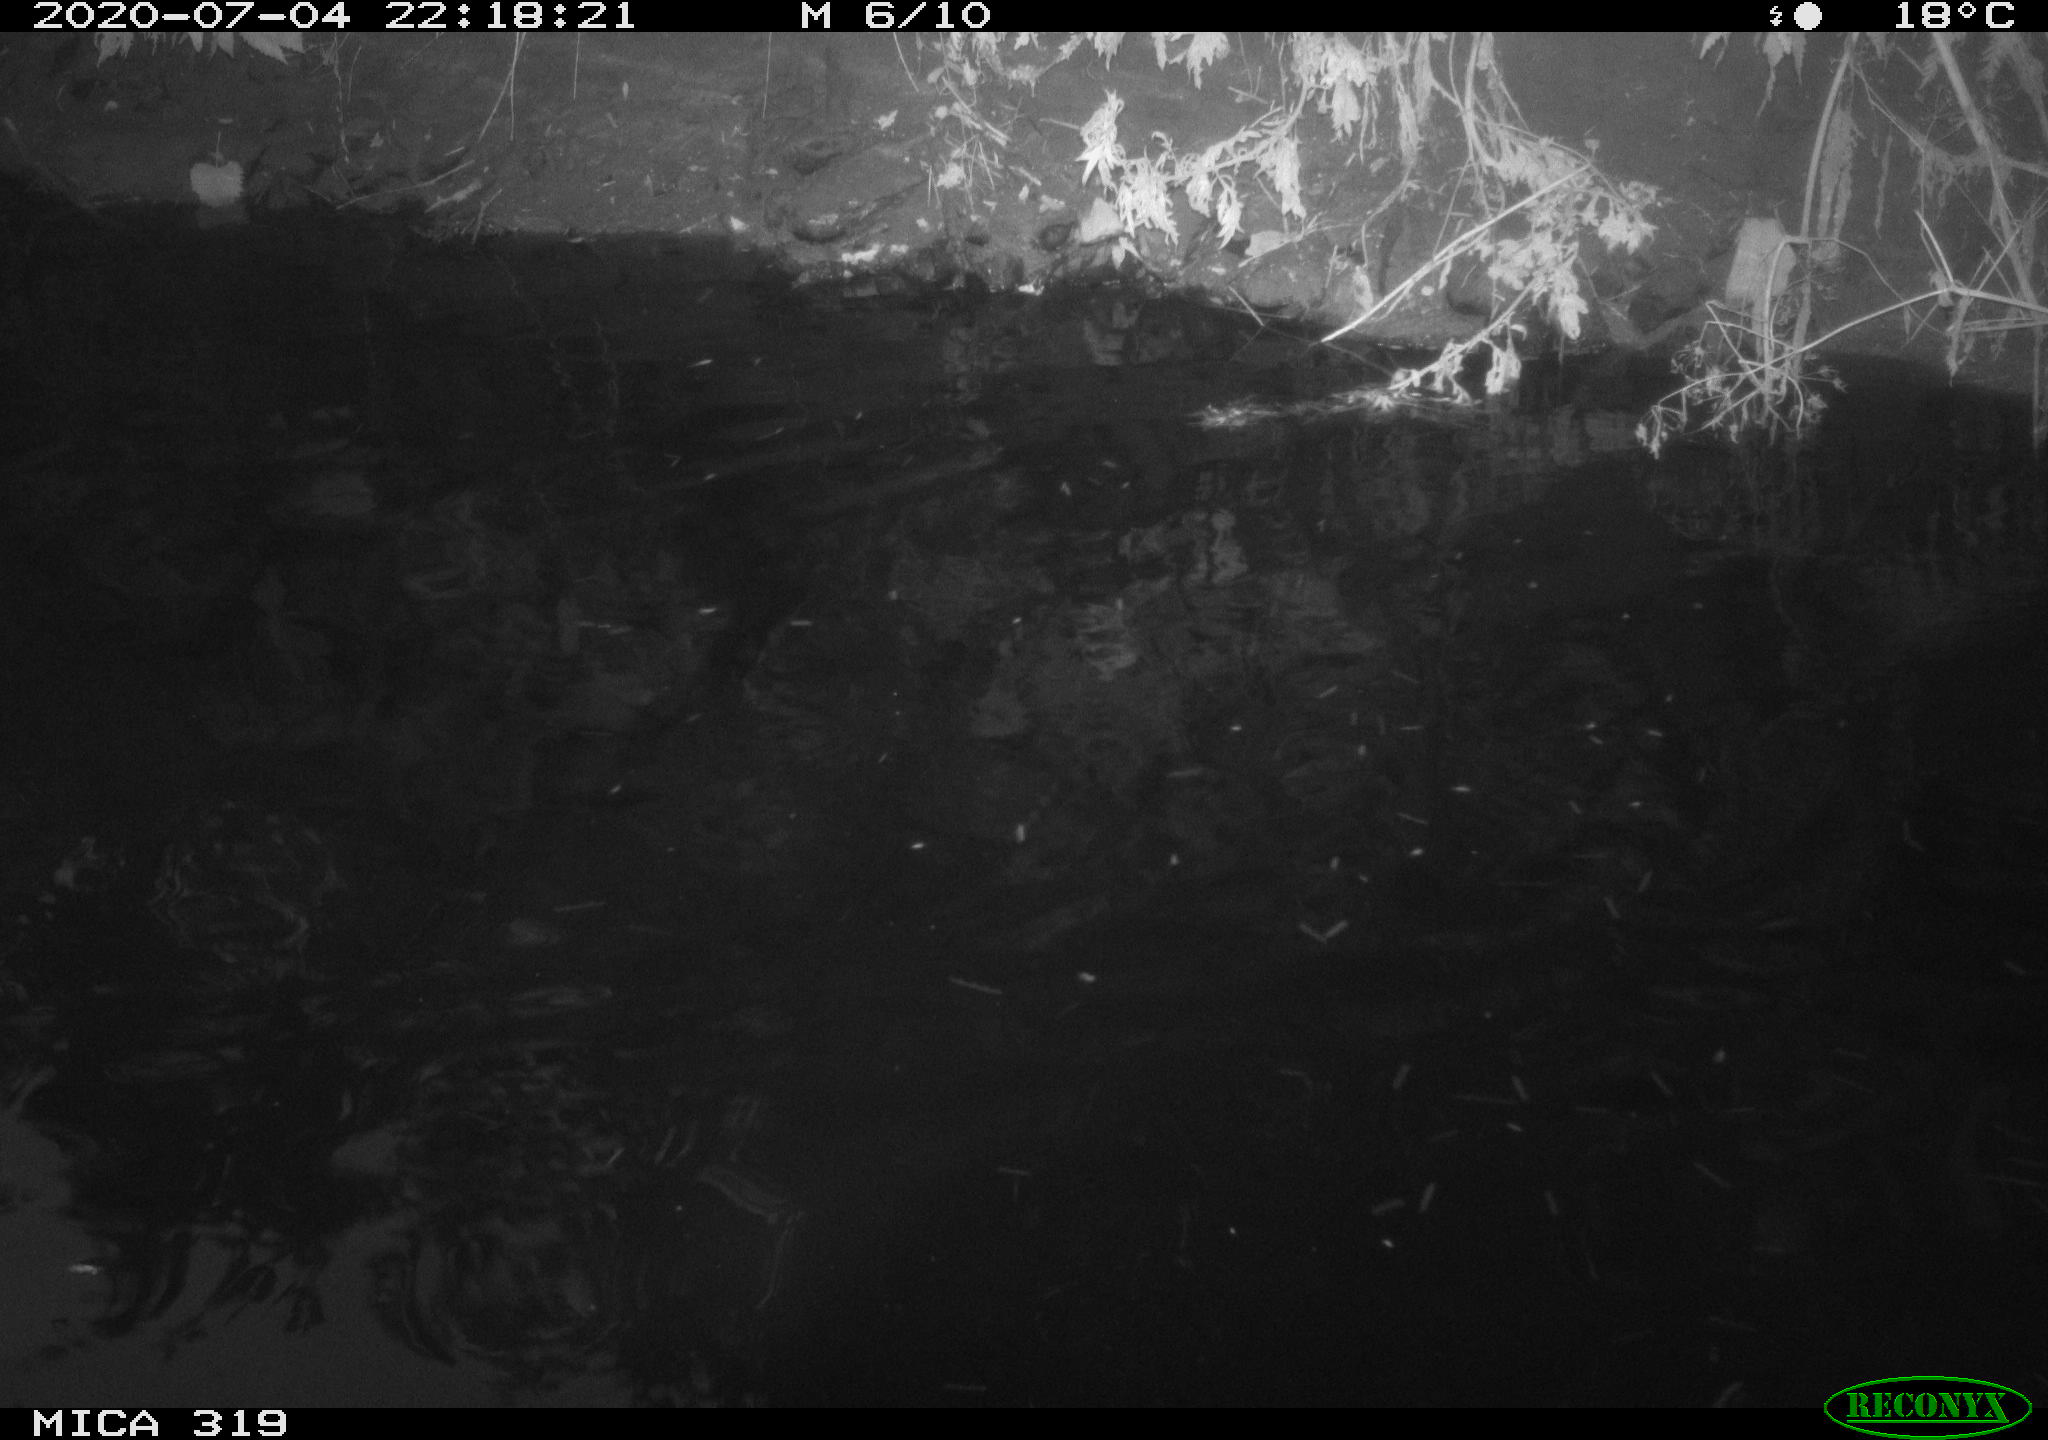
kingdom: Animalia
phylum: Chordata
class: Aves
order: Anseriformes
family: Anatidae
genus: Anas
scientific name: Anas platyrhynchos
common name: Mallard
